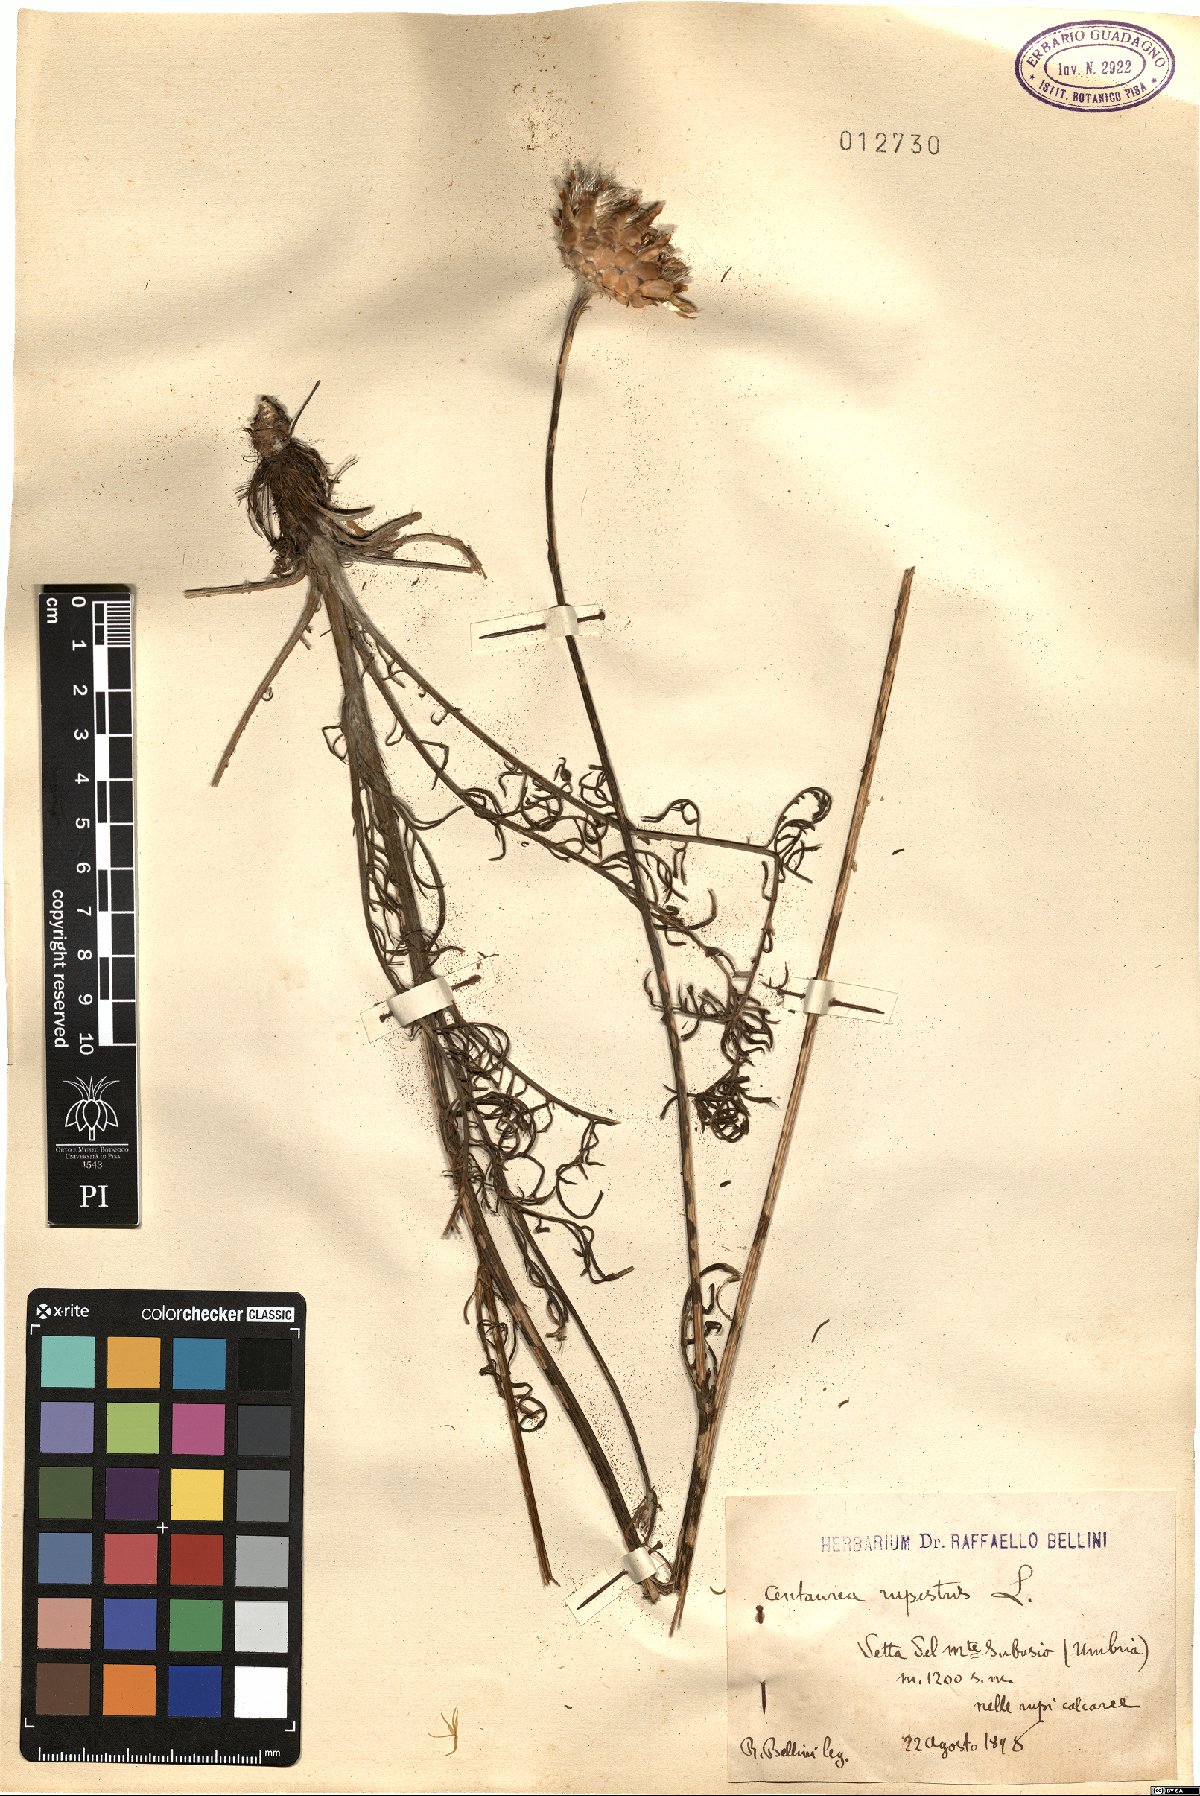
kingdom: Plantae
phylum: Tracheophyta
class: Magnoliopsida
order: Asterales
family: Asteraceae
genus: Centaurea
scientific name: Centaurea rupestris
